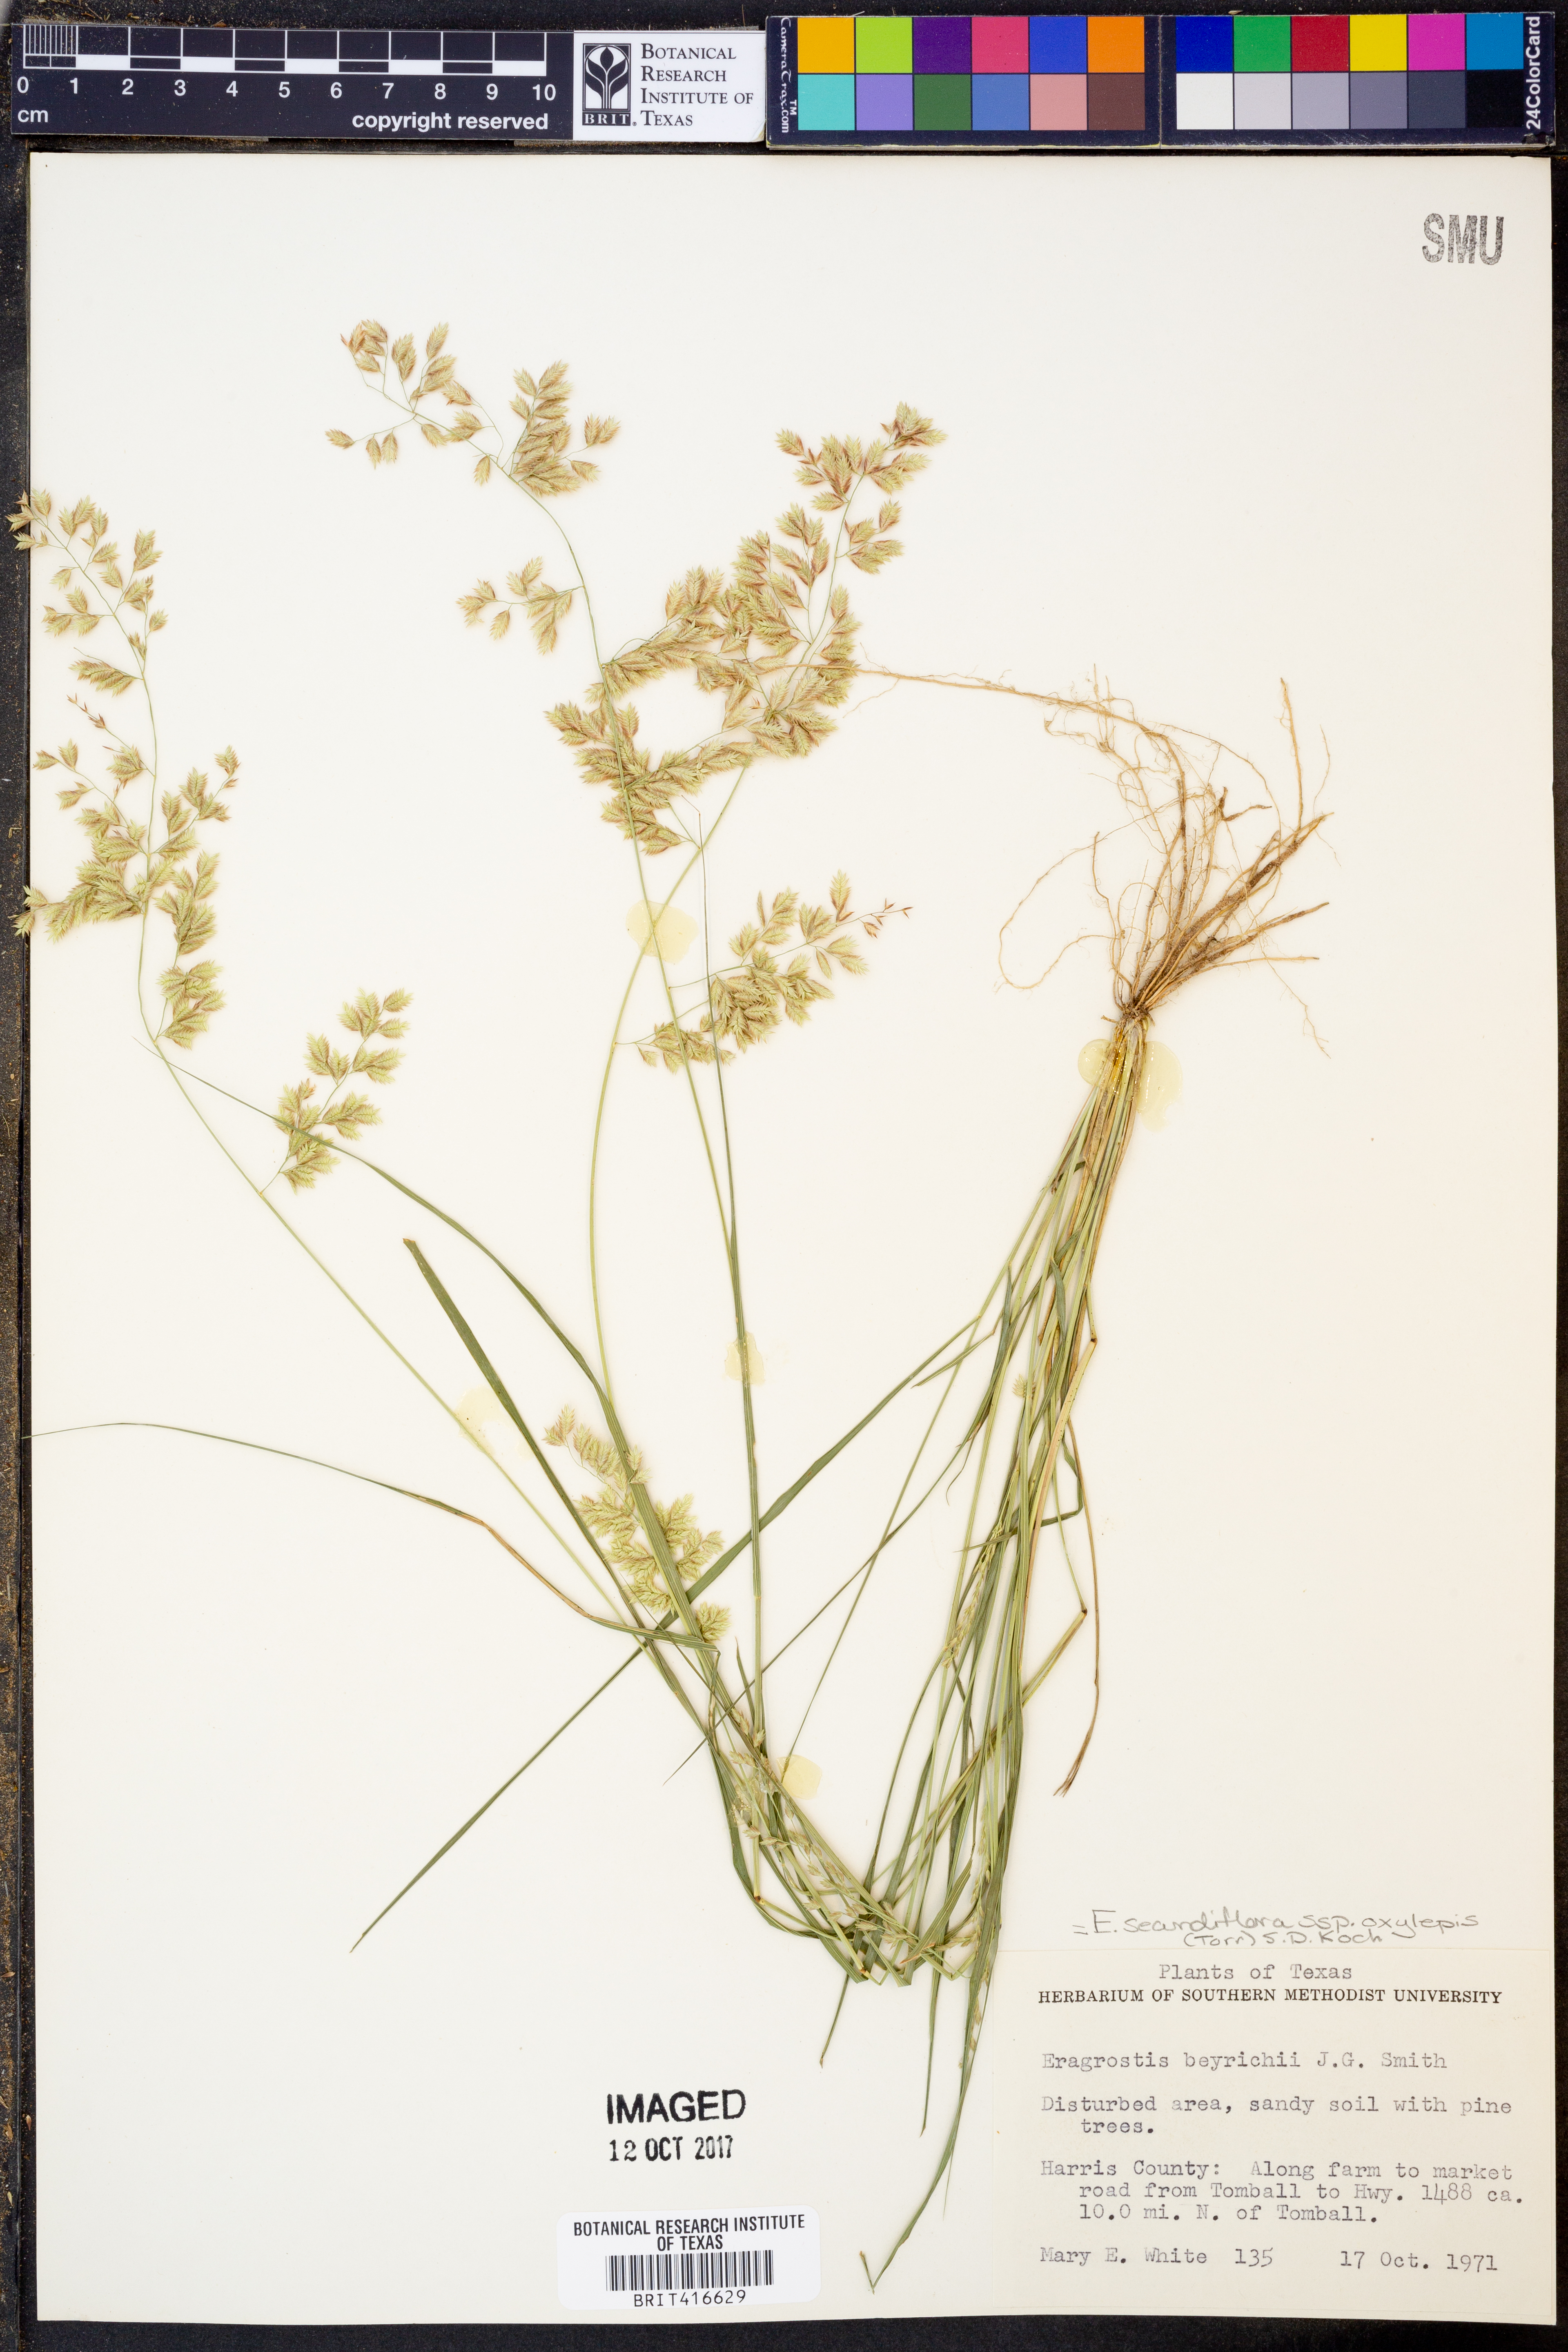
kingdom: Plantae
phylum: Tracheophyta
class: Liliopsida
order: Poales
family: Poaceae
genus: Eragrostis
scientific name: Eragrostis secundiflora
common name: Red love grass
